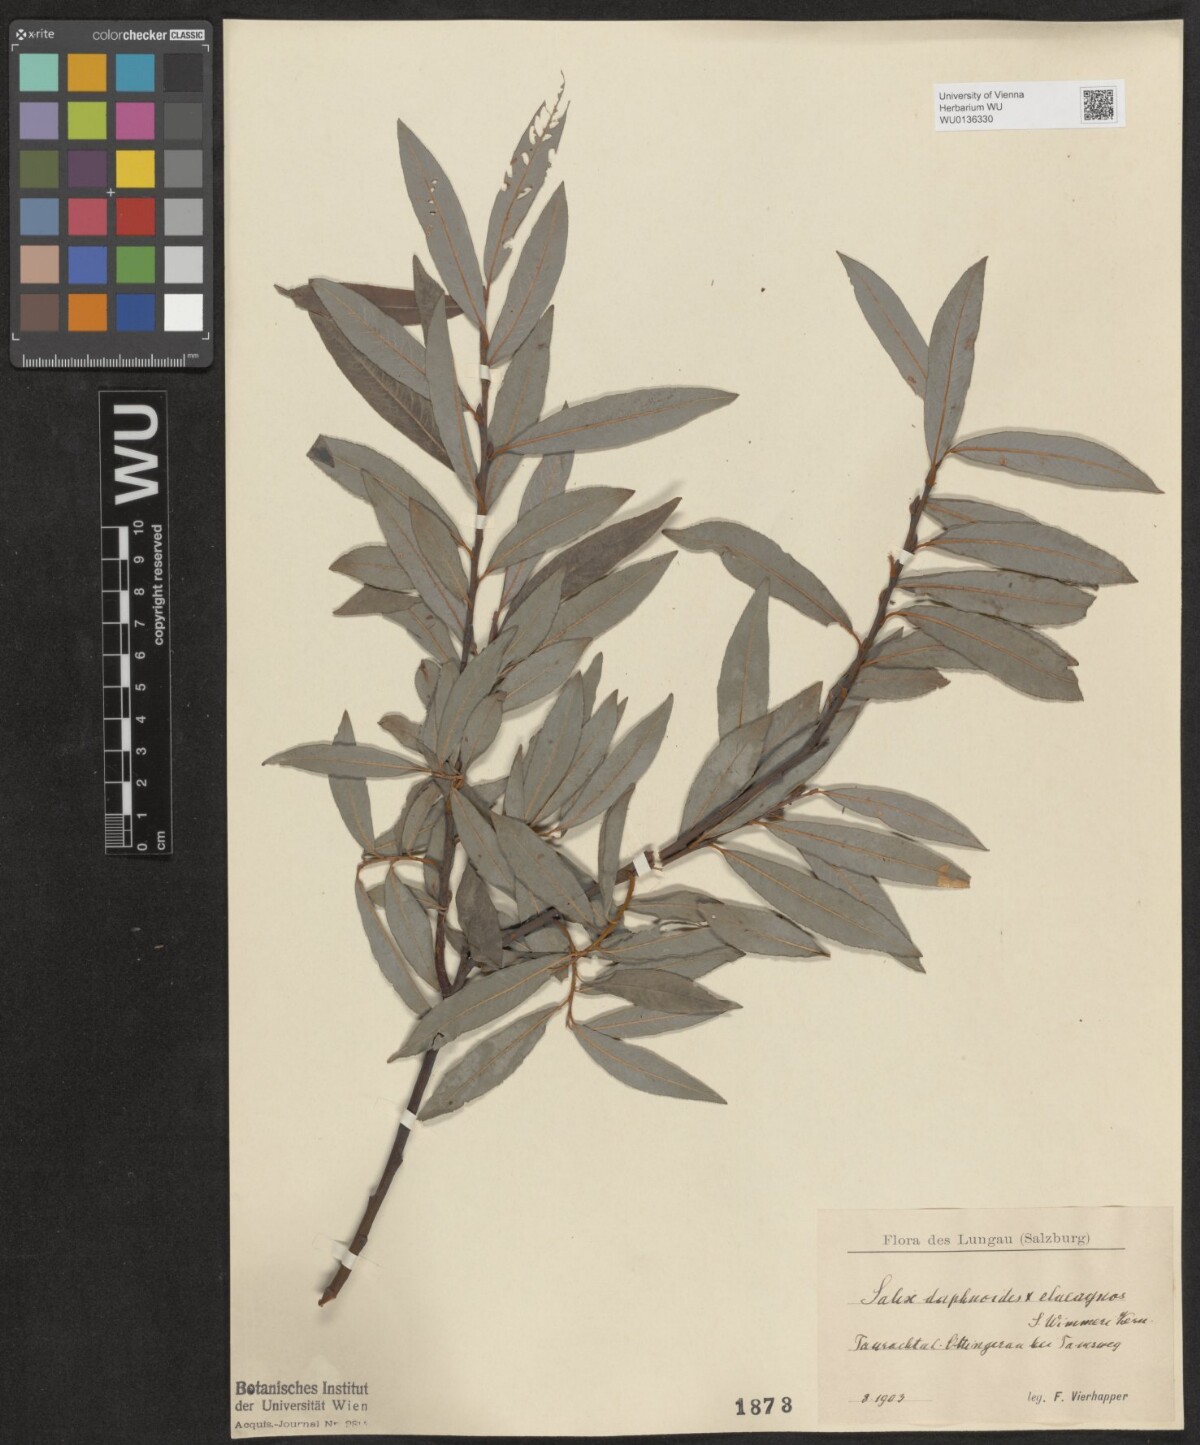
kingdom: Plantae
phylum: Tracheophyta
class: Magnoliopsida
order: Malpighiales
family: Salicaceae
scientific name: Salicaceae
